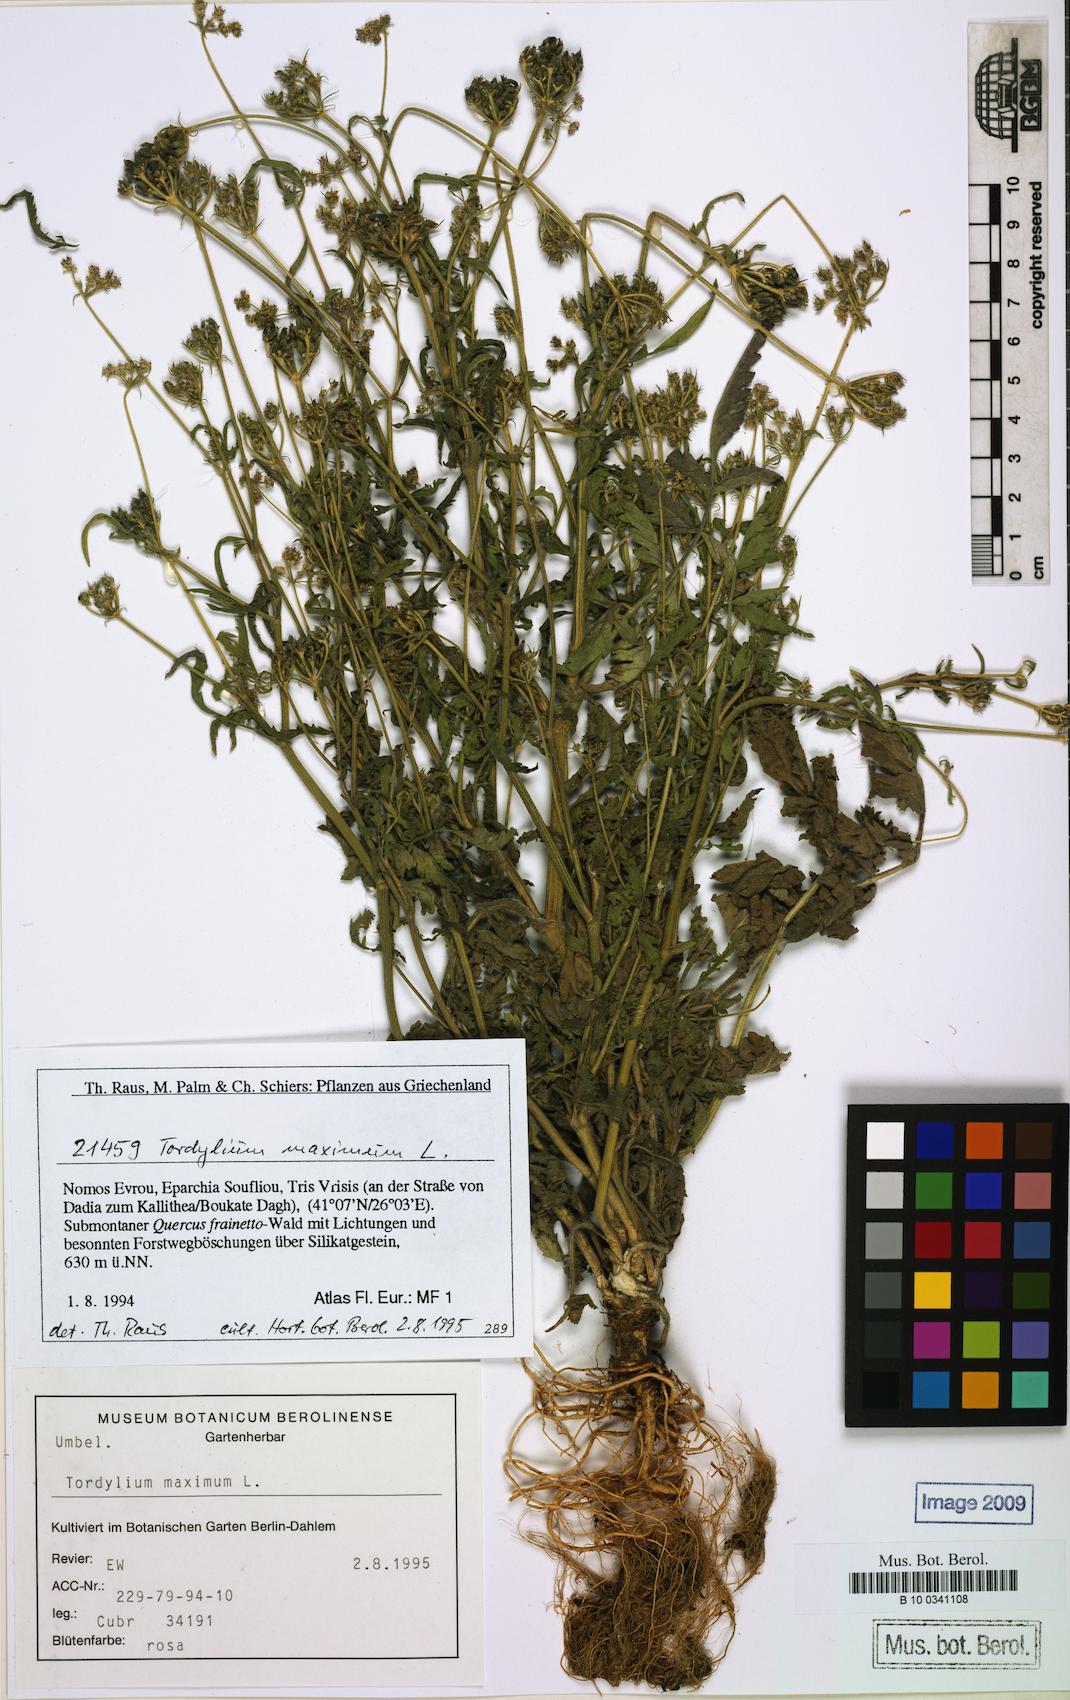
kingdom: Plantae
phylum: Tracheophyta
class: Magnoliopsida
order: Apiales
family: Apiaceae
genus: Tordylium
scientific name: Tordylium maximum
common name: Hartwort
